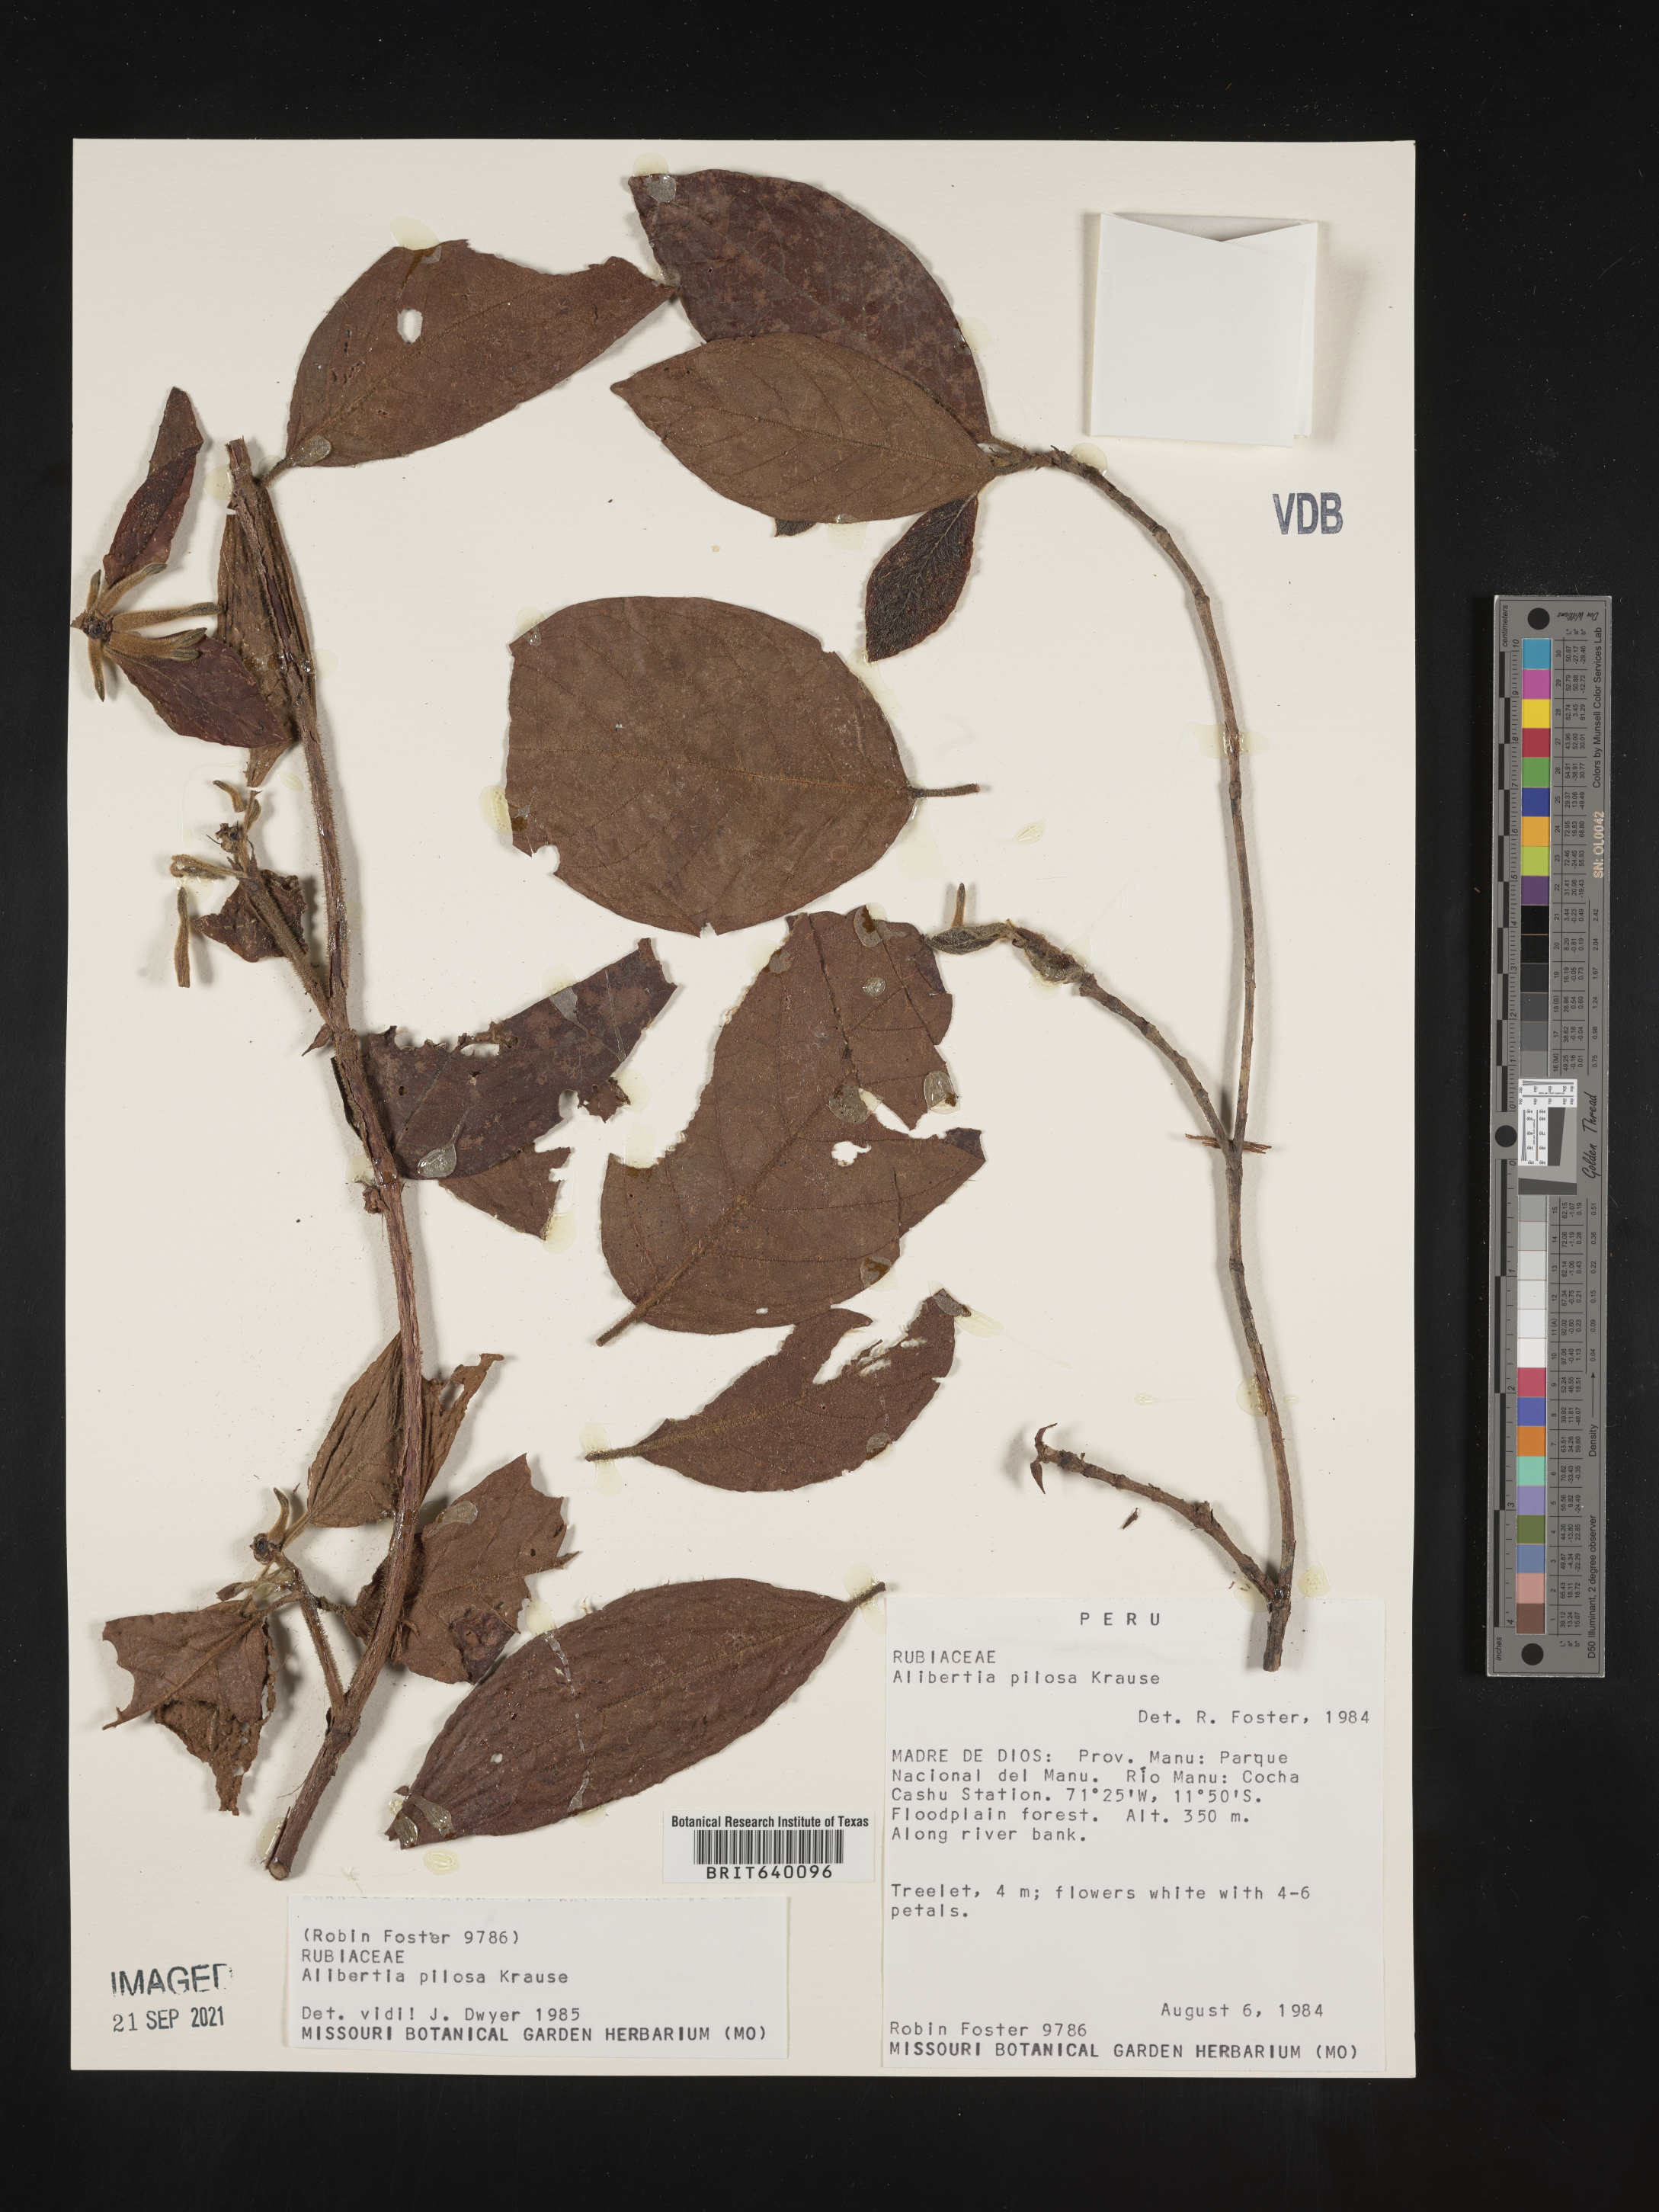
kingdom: Plantae
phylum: Tracheophyta
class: Magnoliopsida
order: Gentianales
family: Rubiaceae
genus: Alibertia
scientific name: Alibertia
